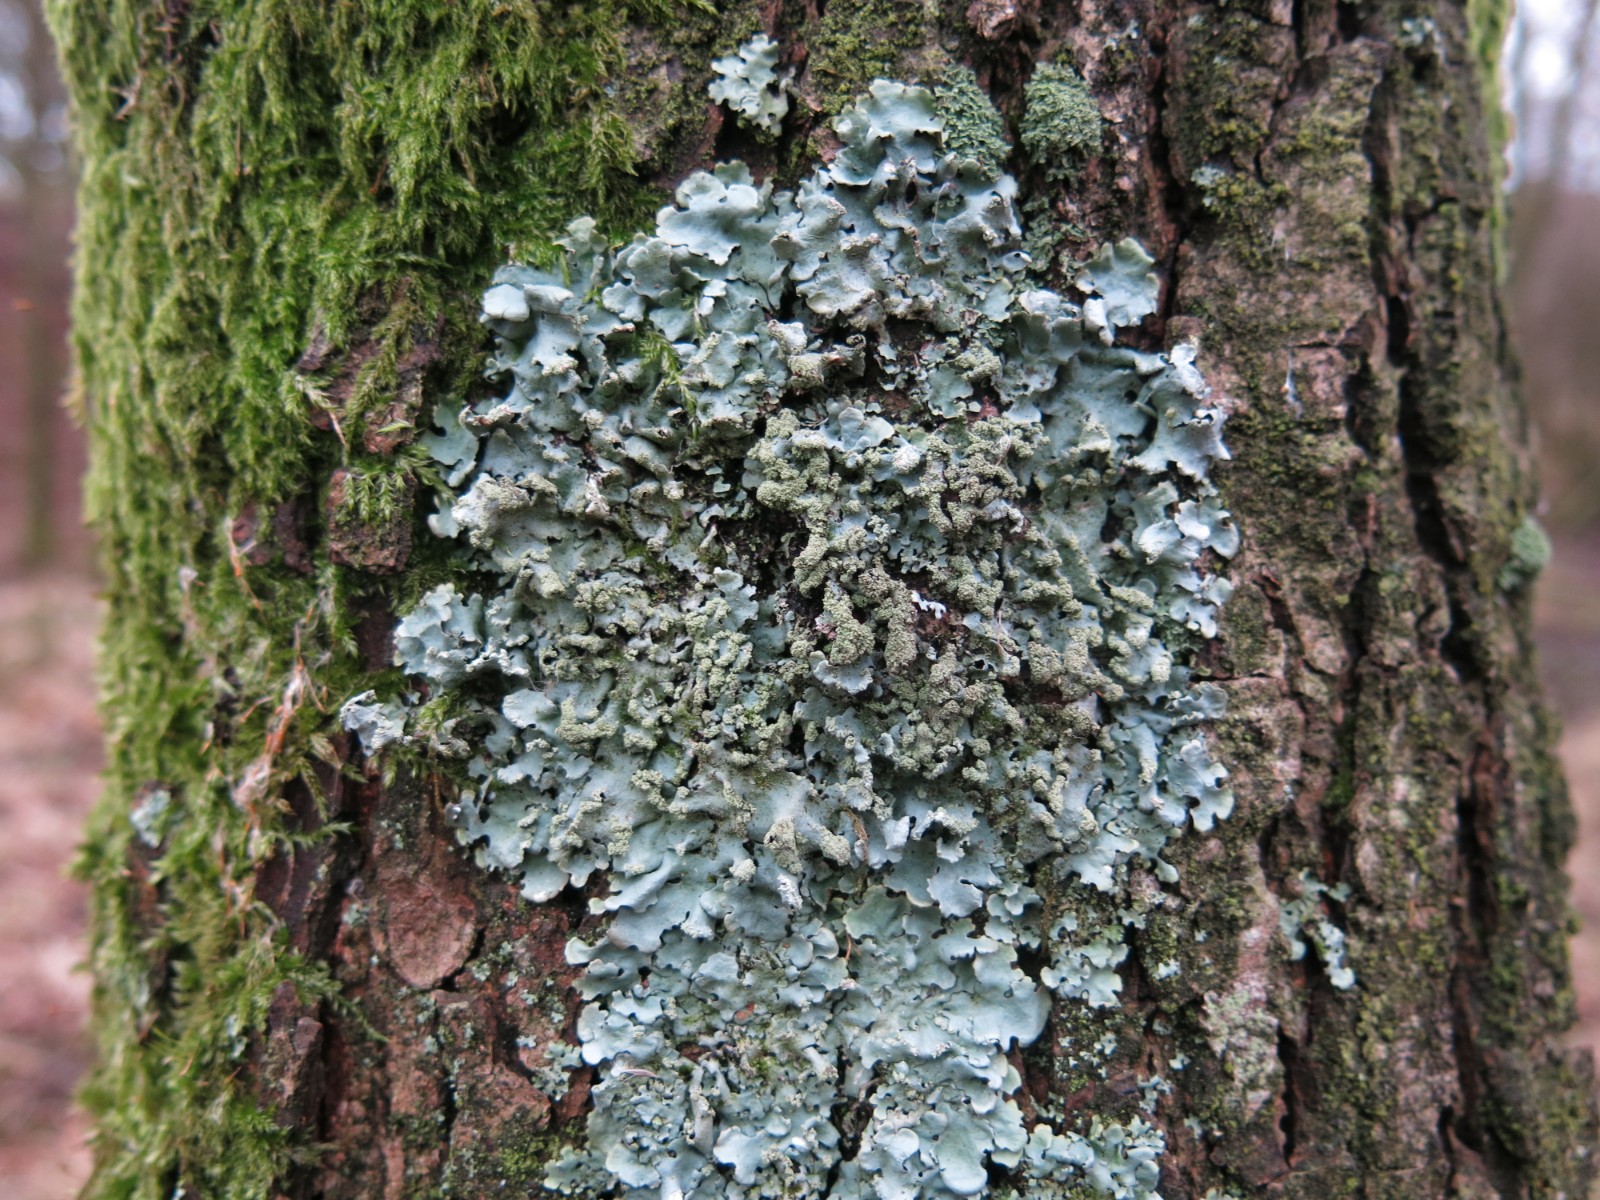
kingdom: Fungi
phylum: Ascomycota
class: Lecanoromycetes
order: Lecanorales
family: Parmeliaceae
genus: Hypotrachyna
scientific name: Hypotrachyna afrorevoluta
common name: kyst-skållav
